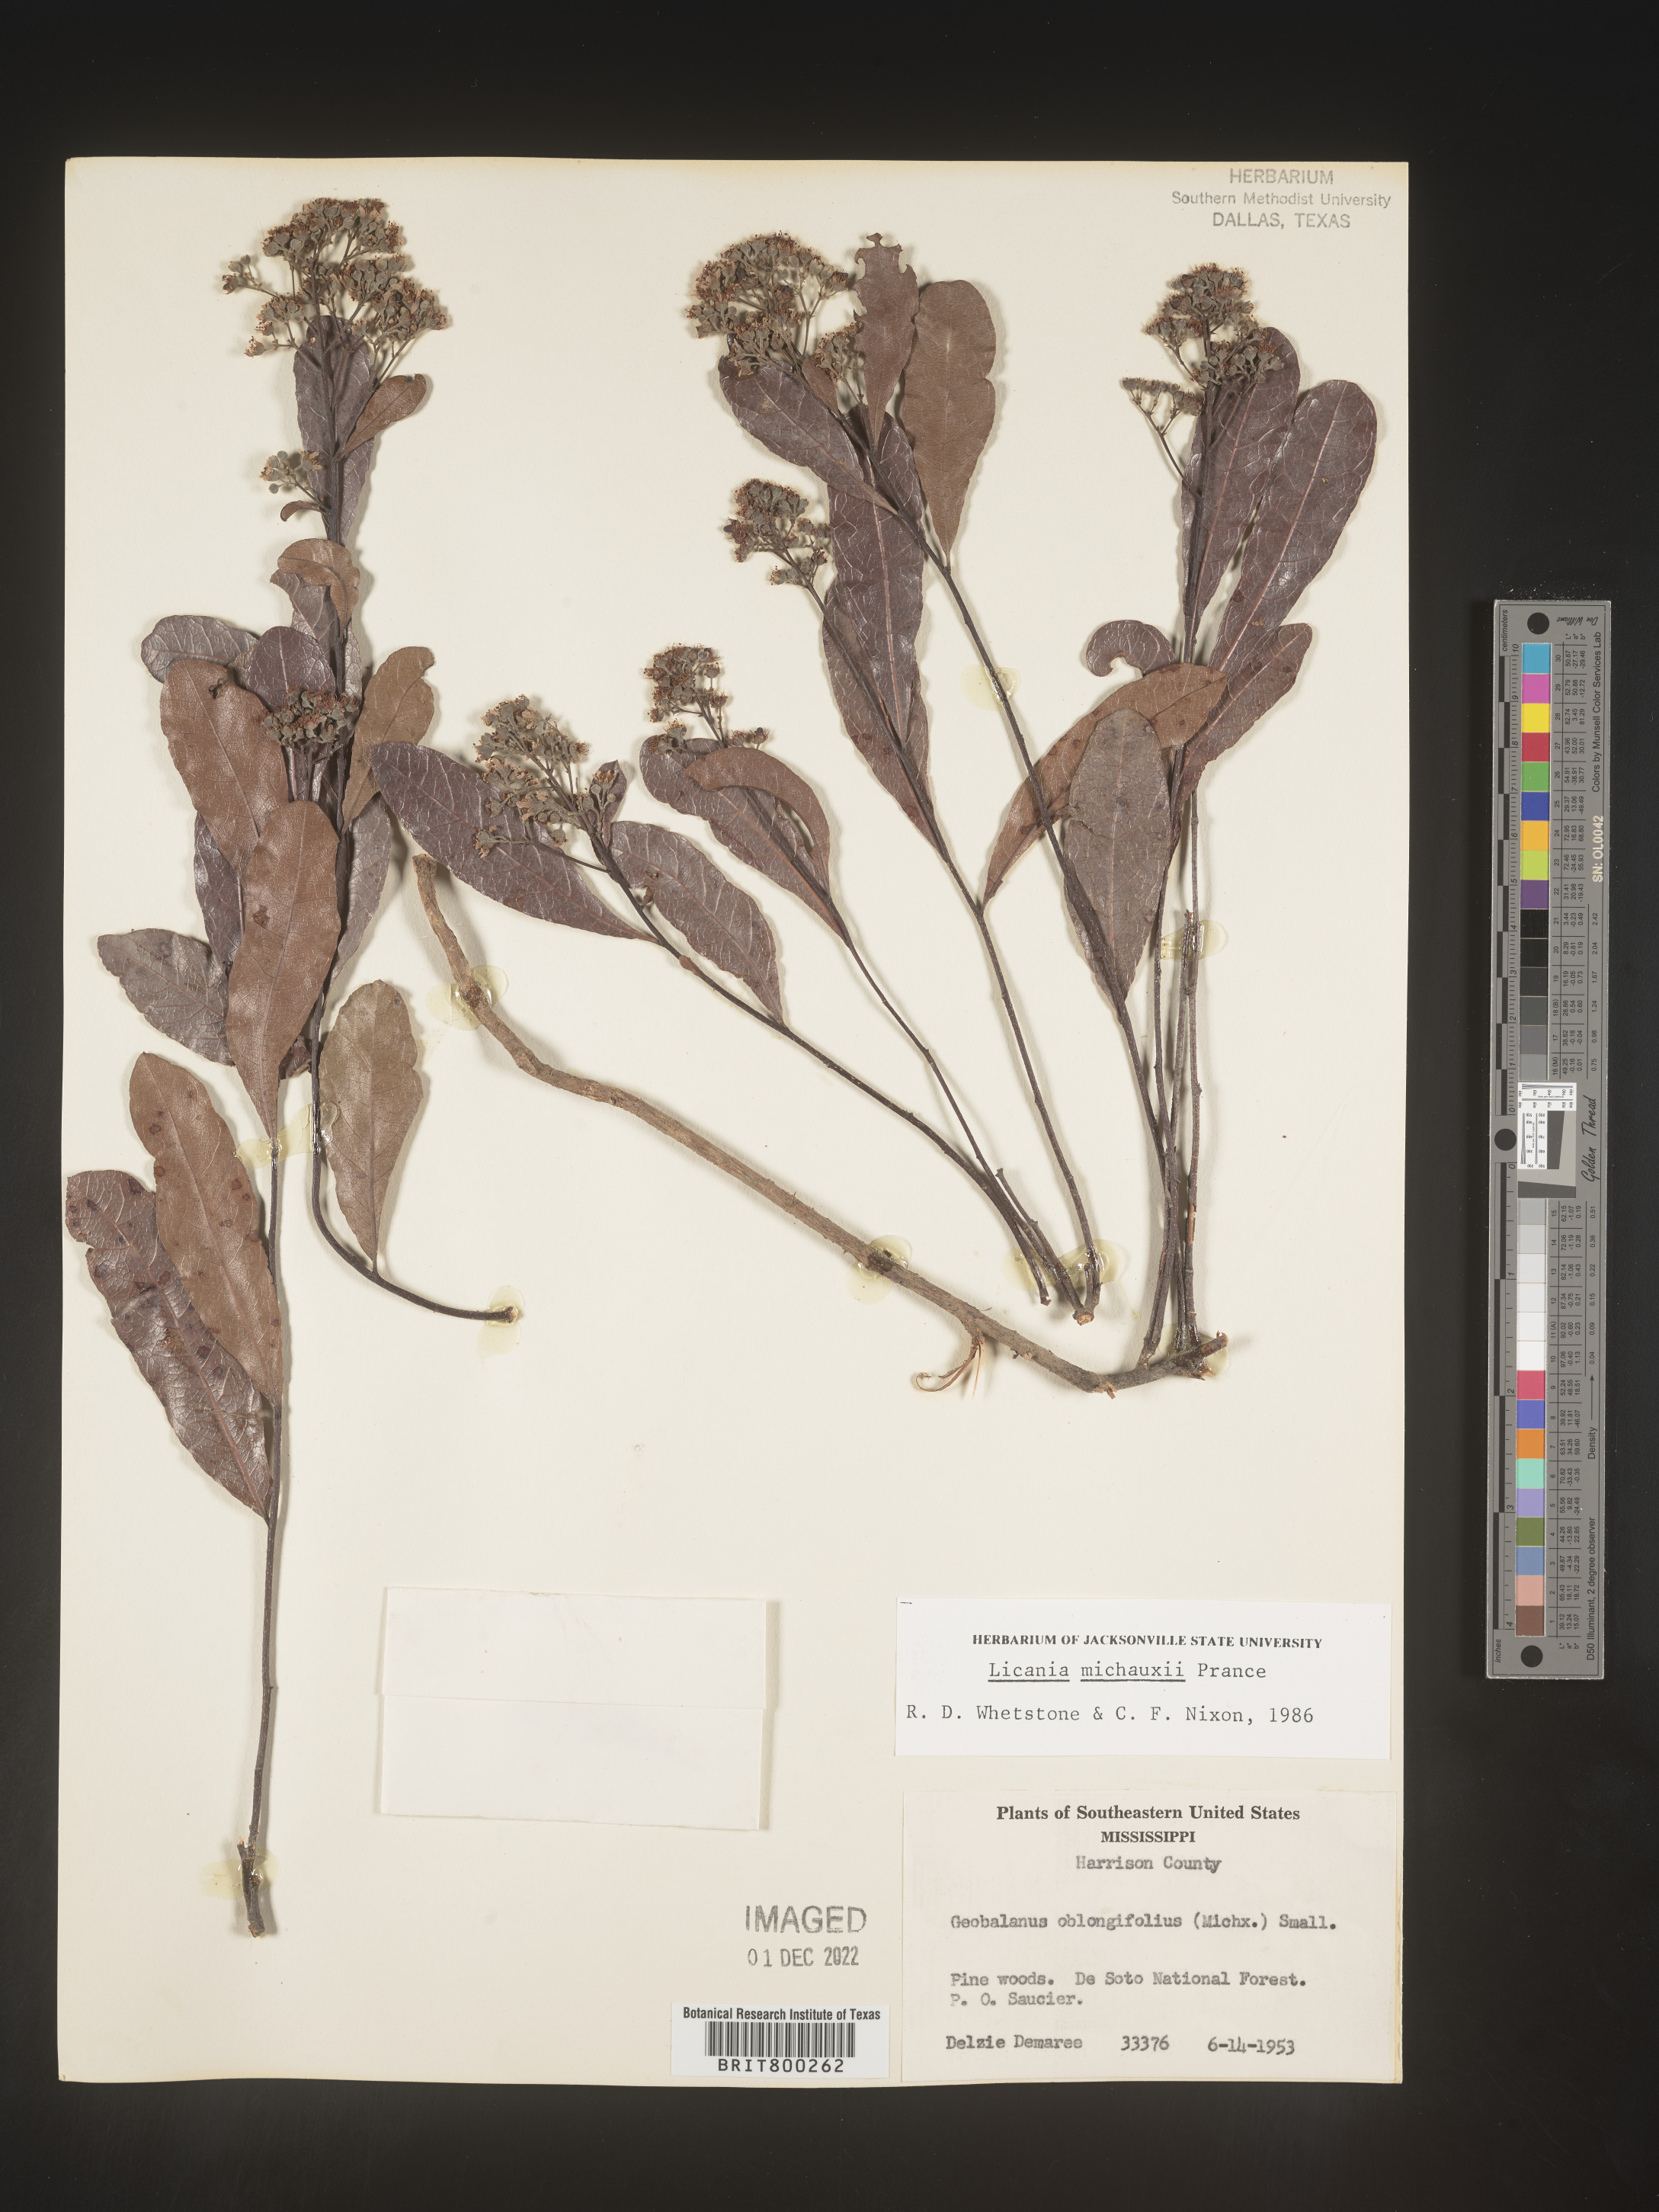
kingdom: Plantae
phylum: Tracheophyta
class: Magnoliopsida
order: Malpighiales
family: Chrysobalanaceae
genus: Geobalanus
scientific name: Geobalanus oblongifolius
